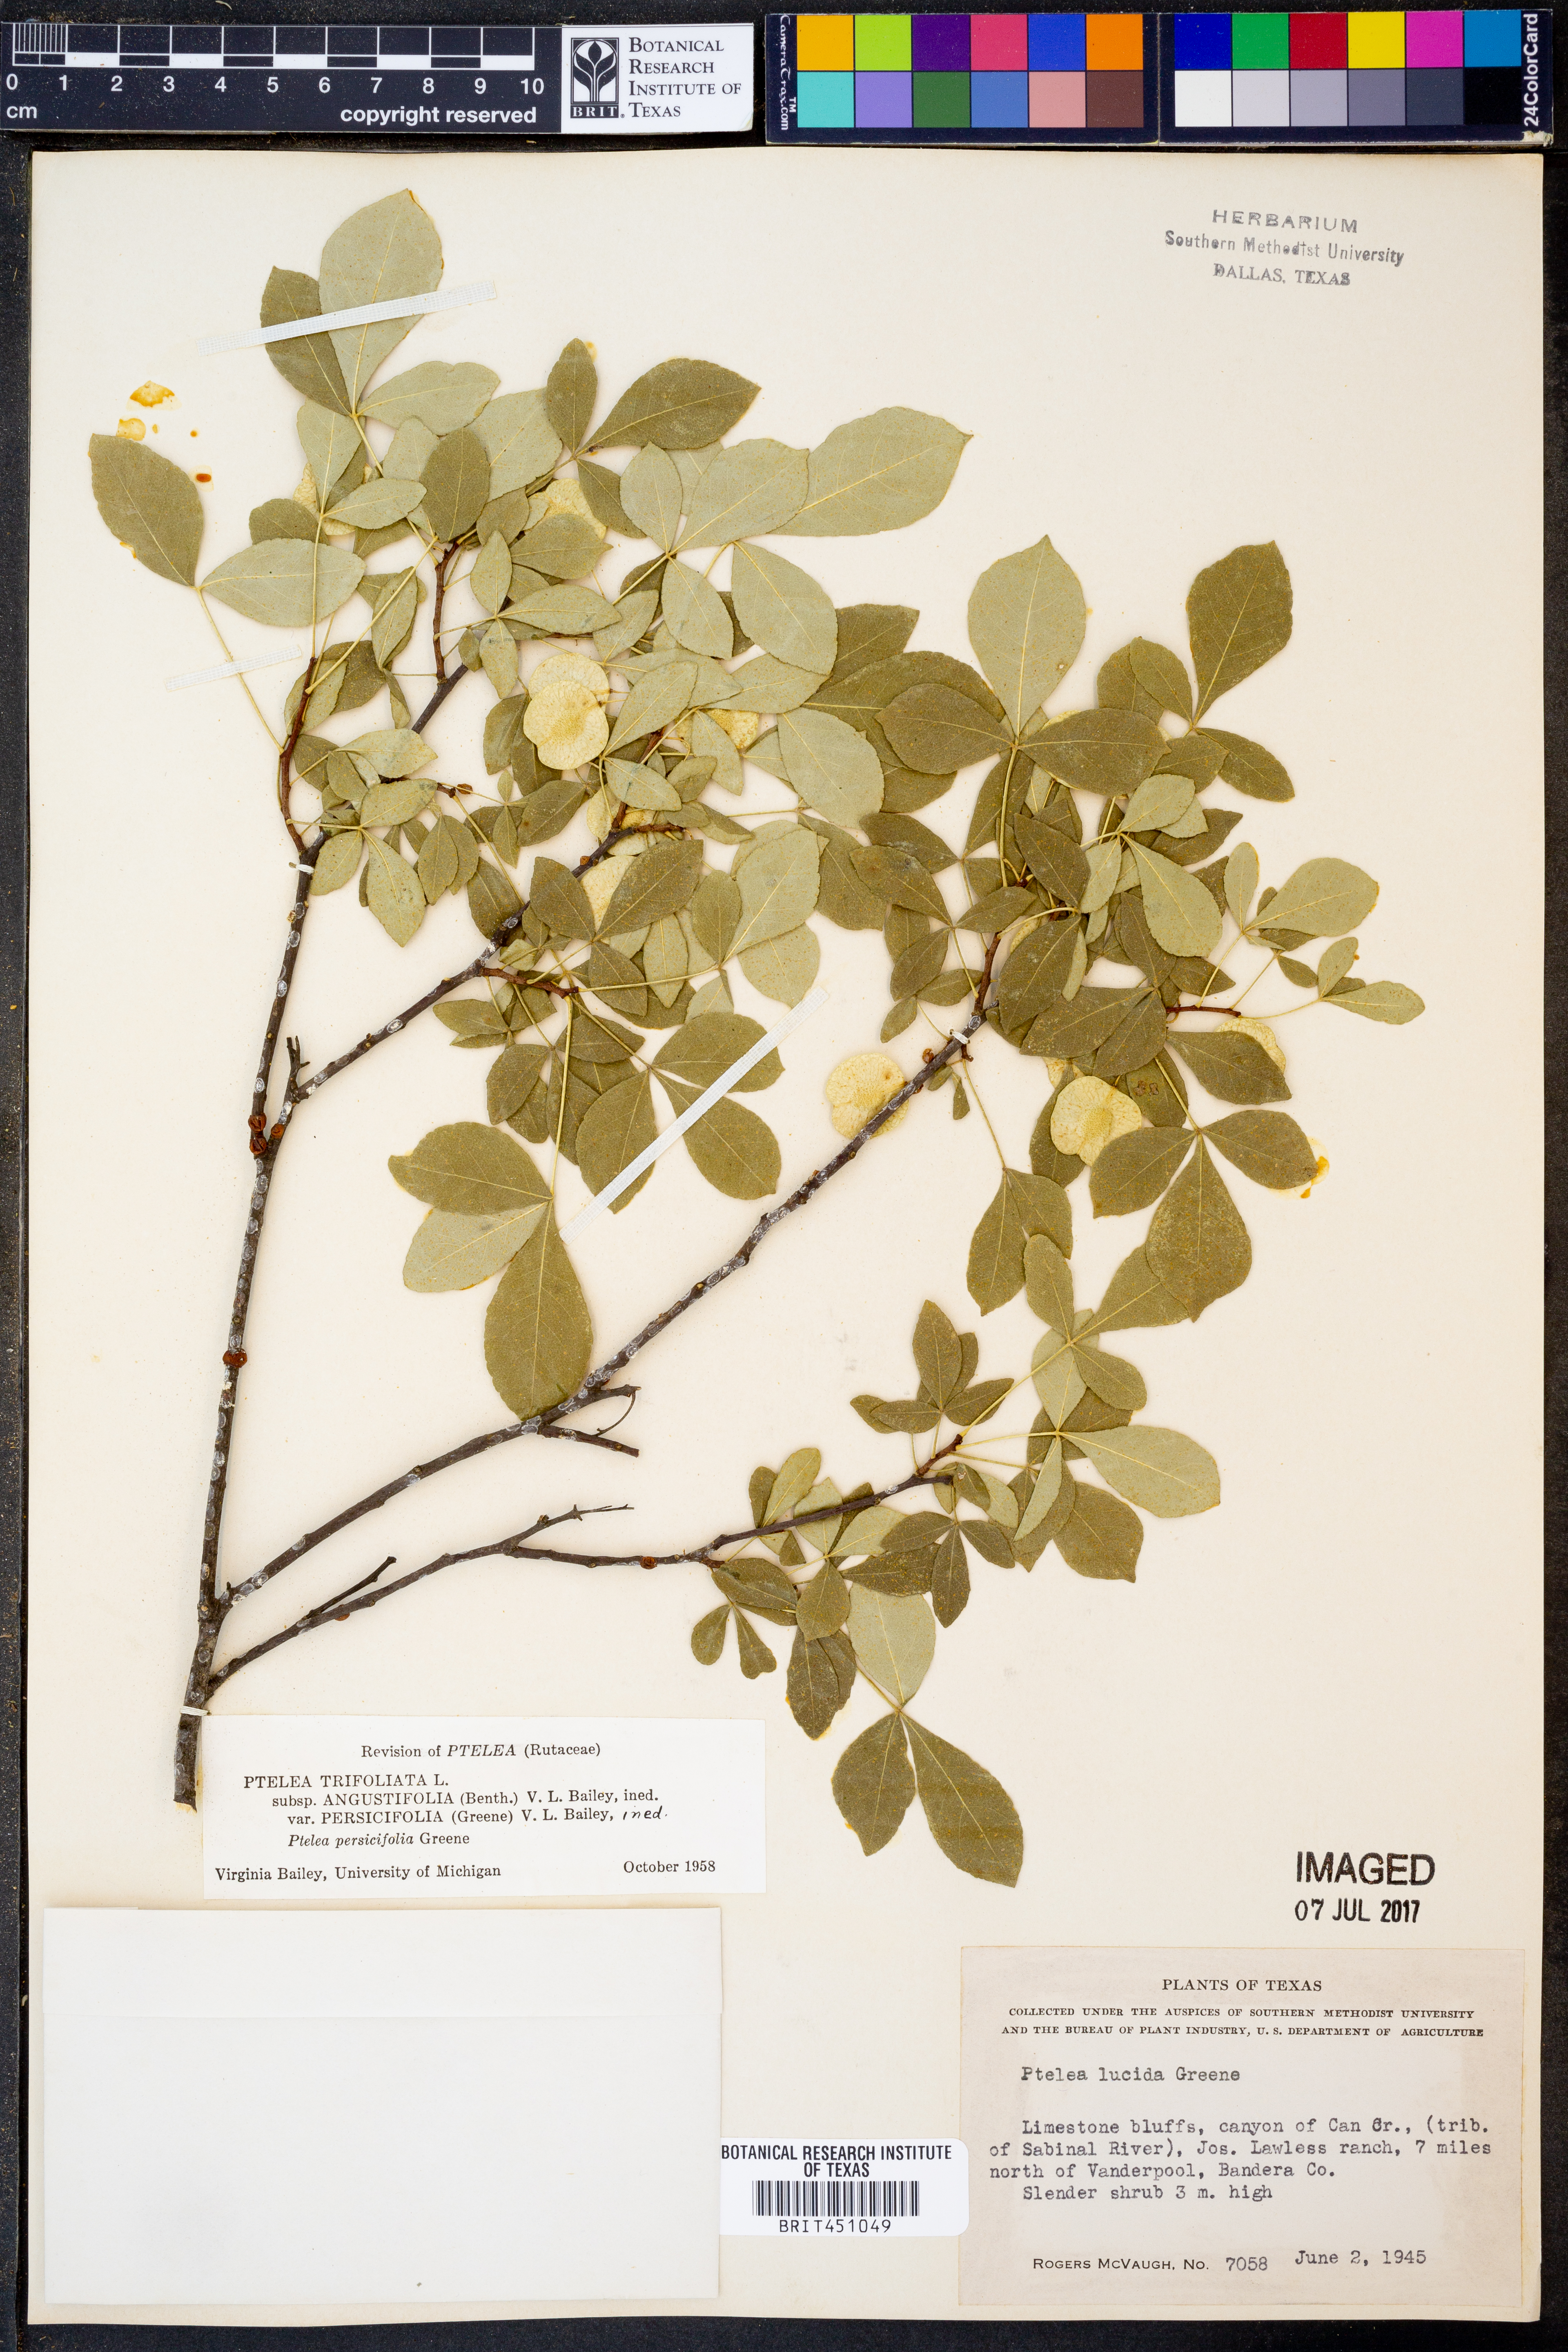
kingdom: Plantae
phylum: Tracheophyta
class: Magnoliopsida
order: Sapindales
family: Rutaceae
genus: Ptelea
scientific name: Ptelea trifoliata
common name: Common hop-tree
